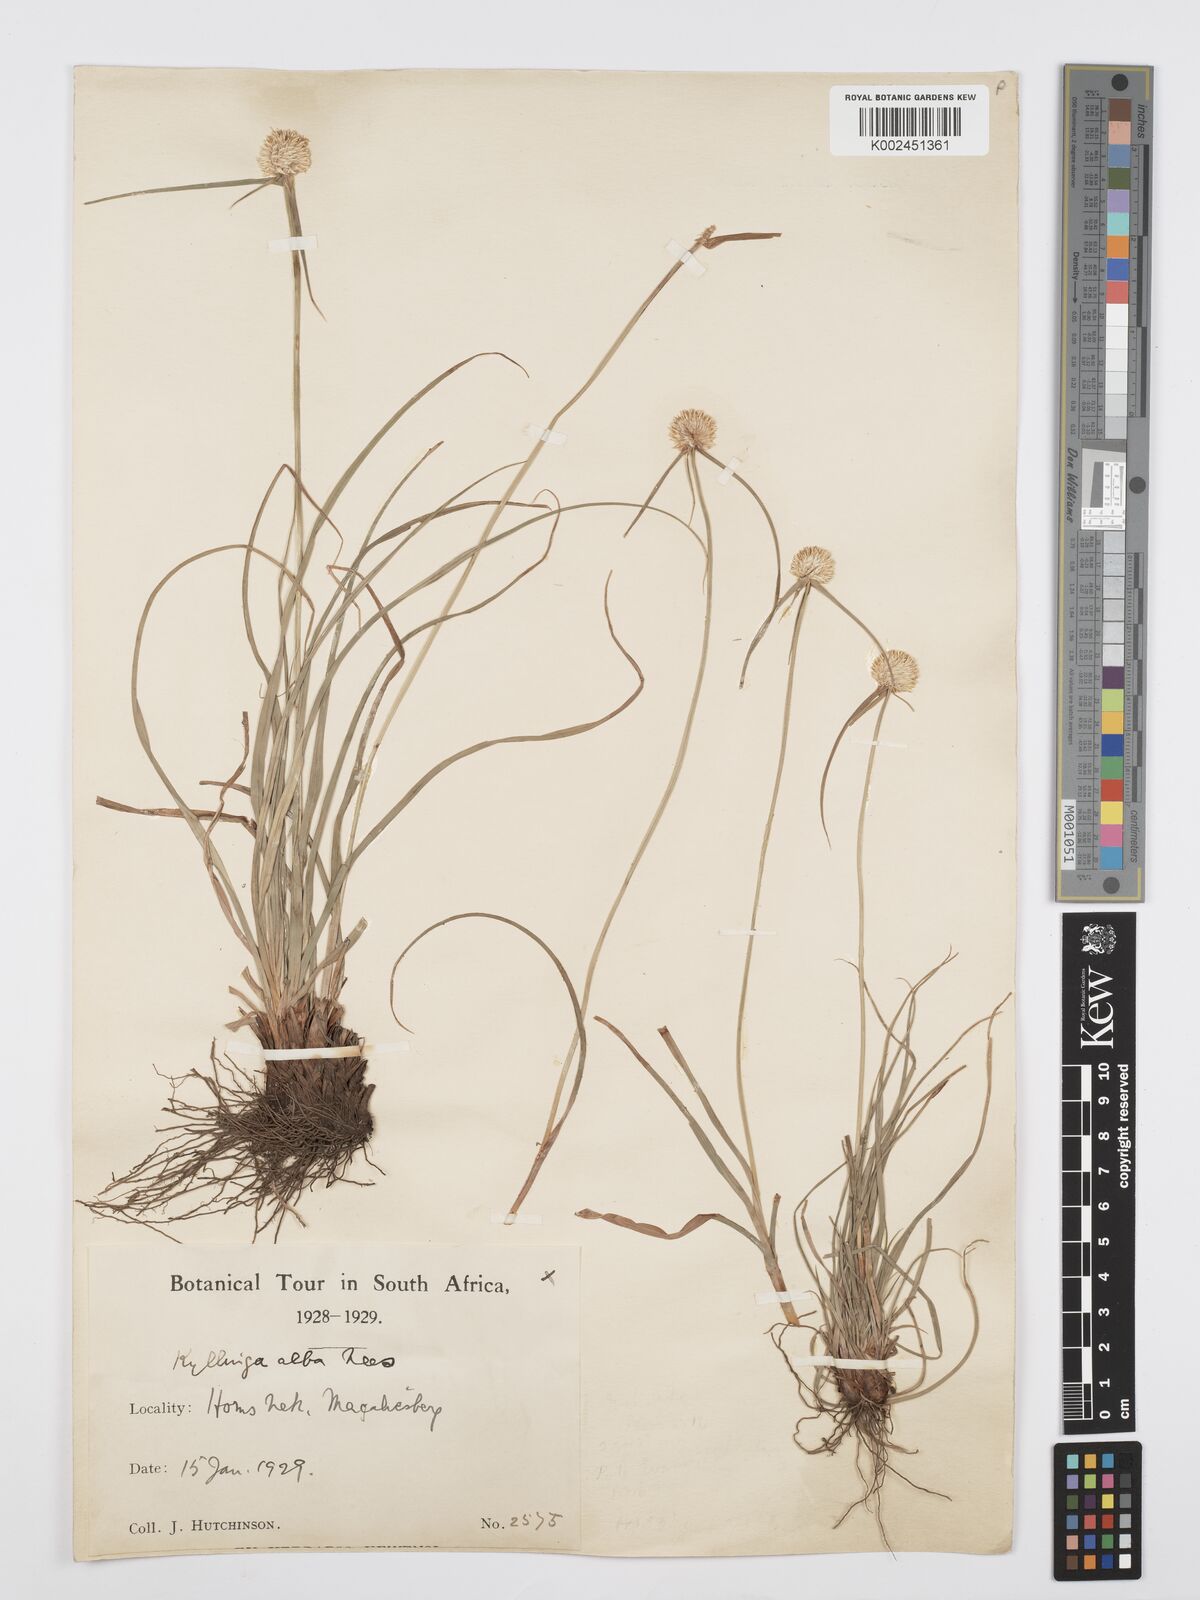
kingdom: Plantae
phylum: Tracheophyta
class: Liliopsida
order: Poales
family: Cyperaceae
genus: Cyperus
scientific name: Cyperus
